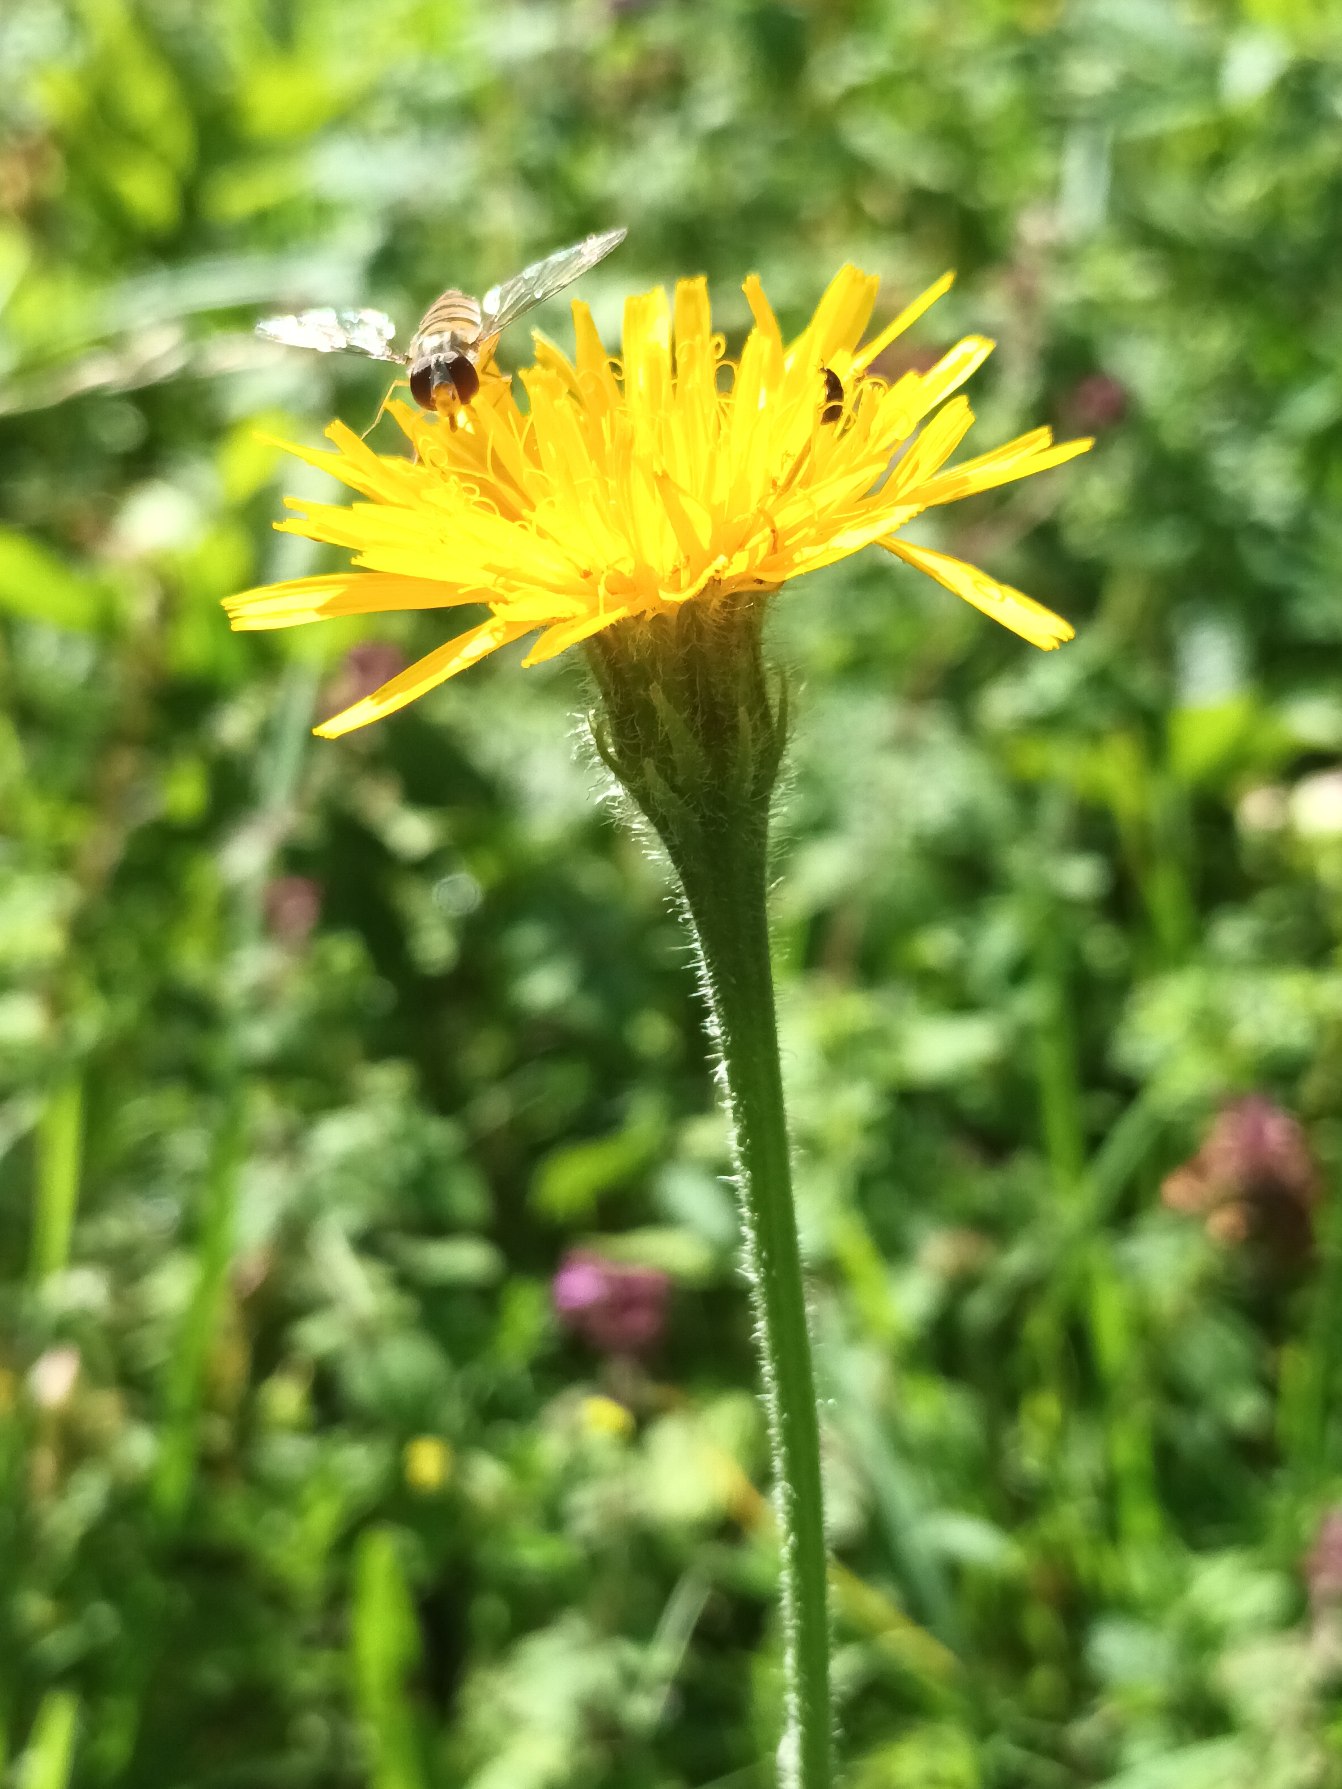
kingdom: Plantae
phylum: Tracheophyta
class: Magnoliopsida
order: Asterales
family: Asteraceae
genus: Leontodon
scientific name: Leontodon hispidus
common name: Stivhåret borst
